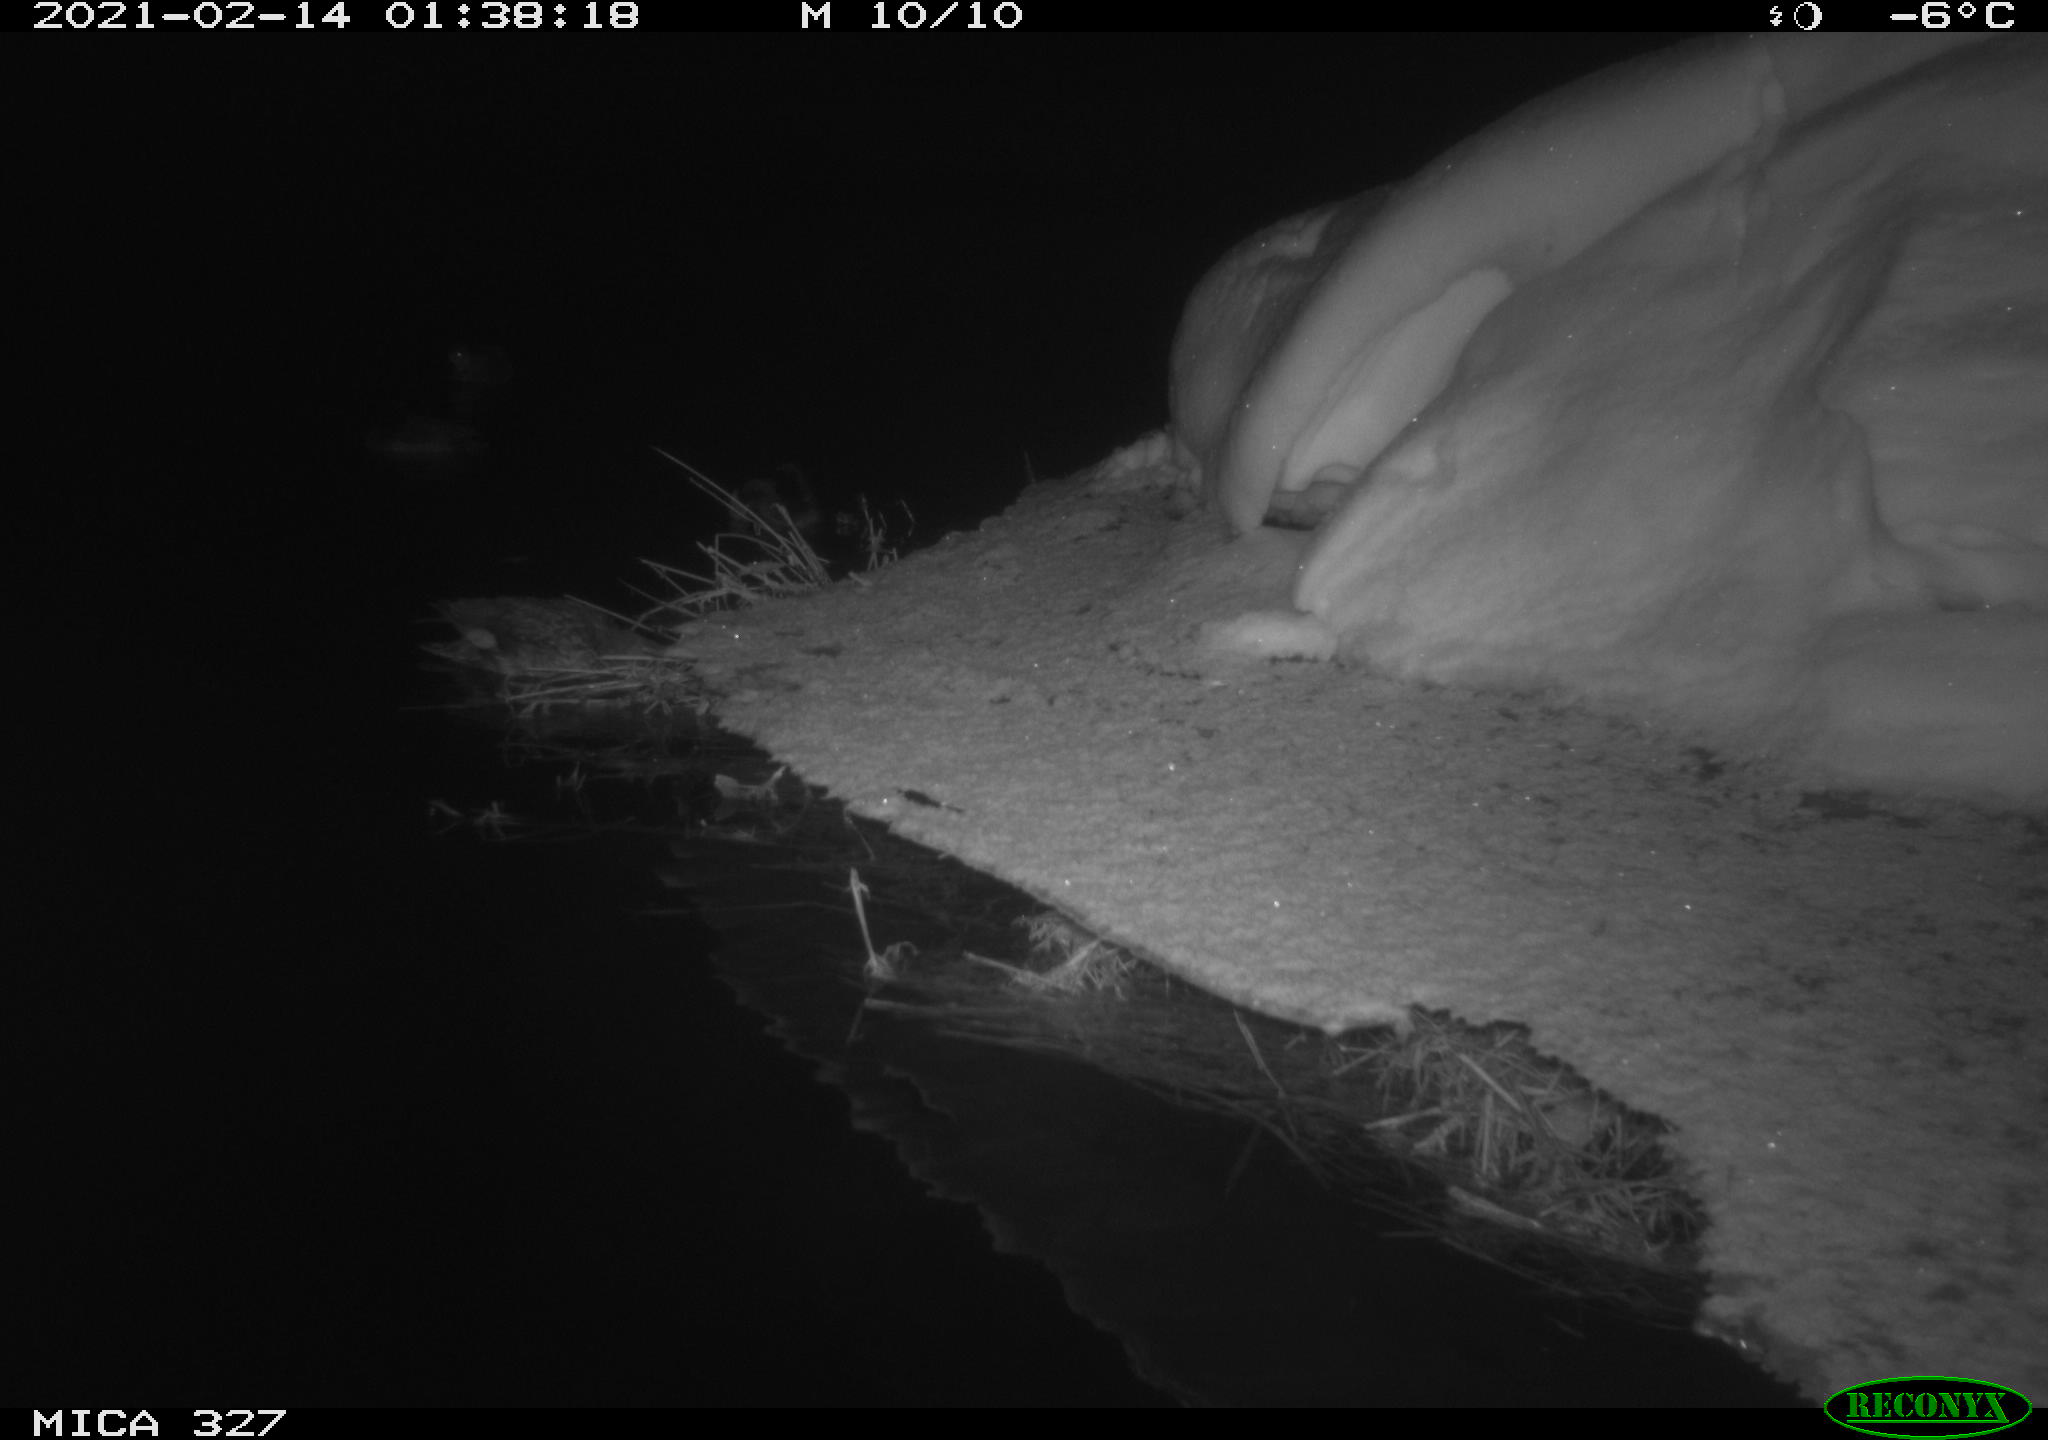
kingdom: Animalia
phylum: Chordata
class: Aves
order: Anseriformes
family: Anatidae
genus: Anas
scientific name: Anas
